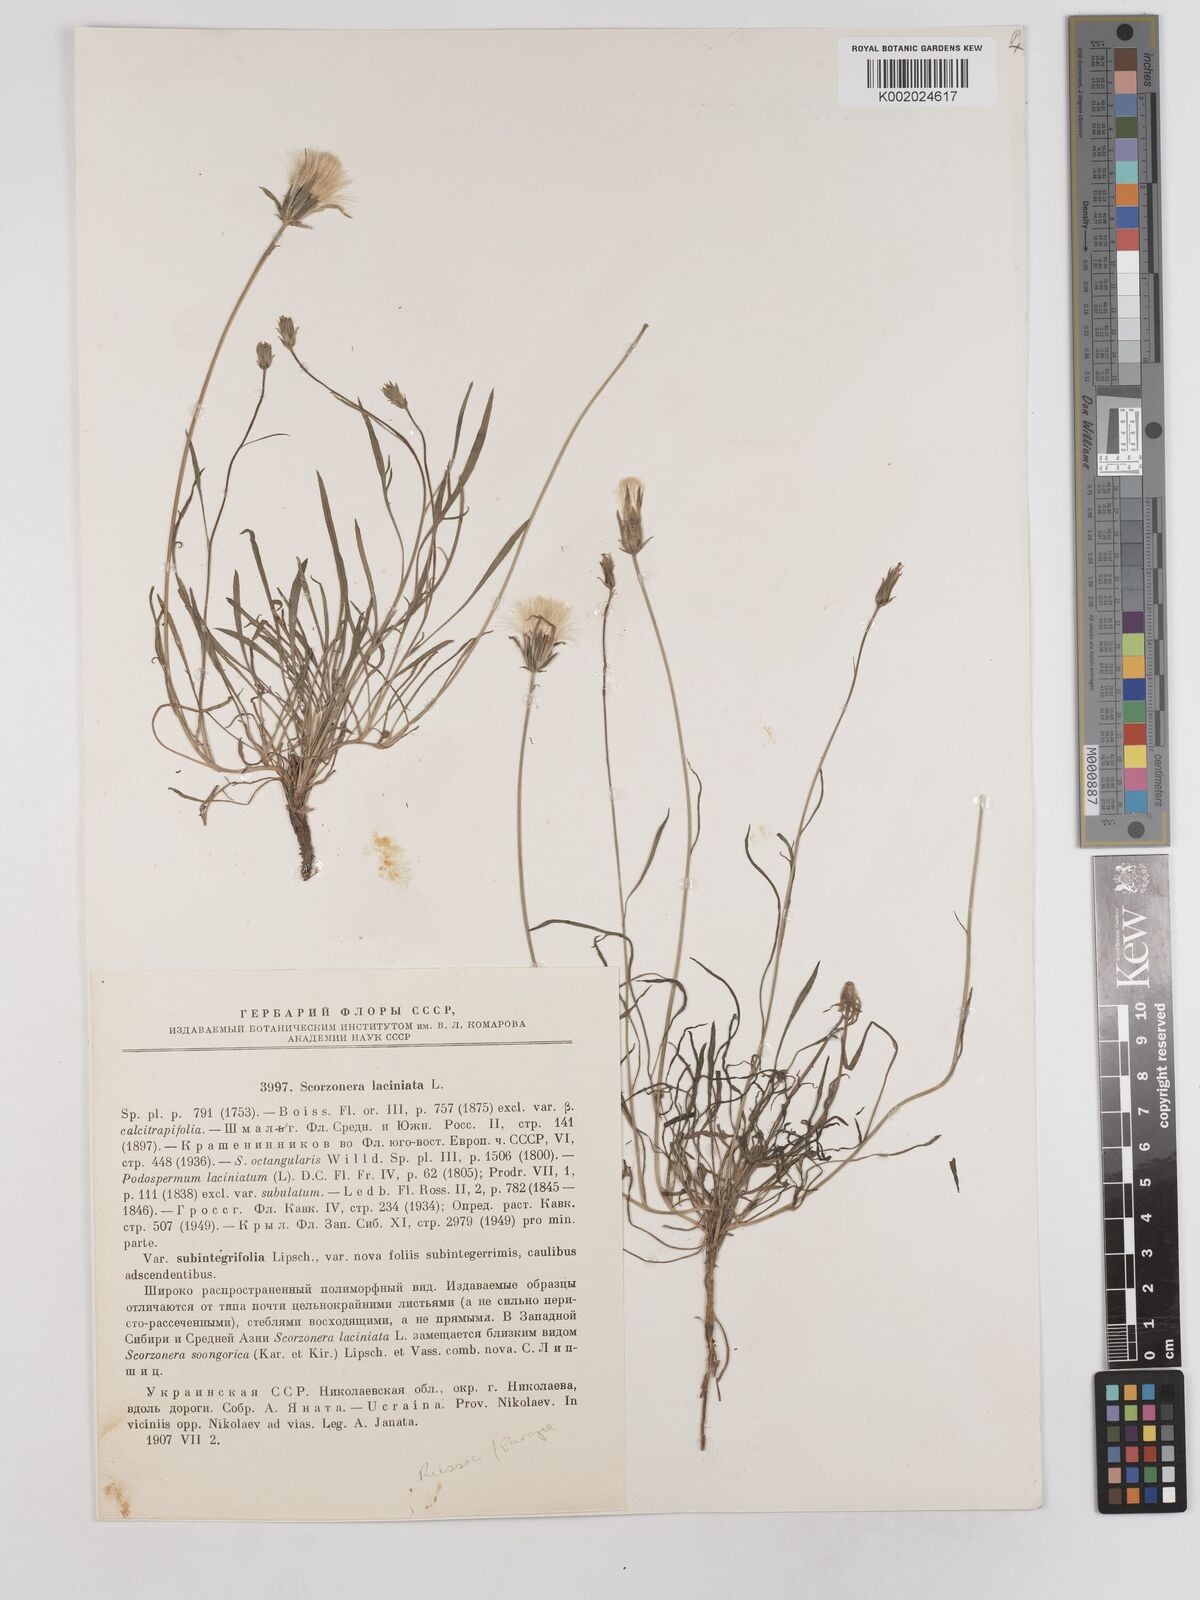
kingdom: Plantae
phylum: Tracheophyta
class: Magnoliopsida
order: Asterales
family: Asteraceae
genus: Scorzonera
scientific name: Scorzonera laciniata
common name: Cutleaf vipergrass
